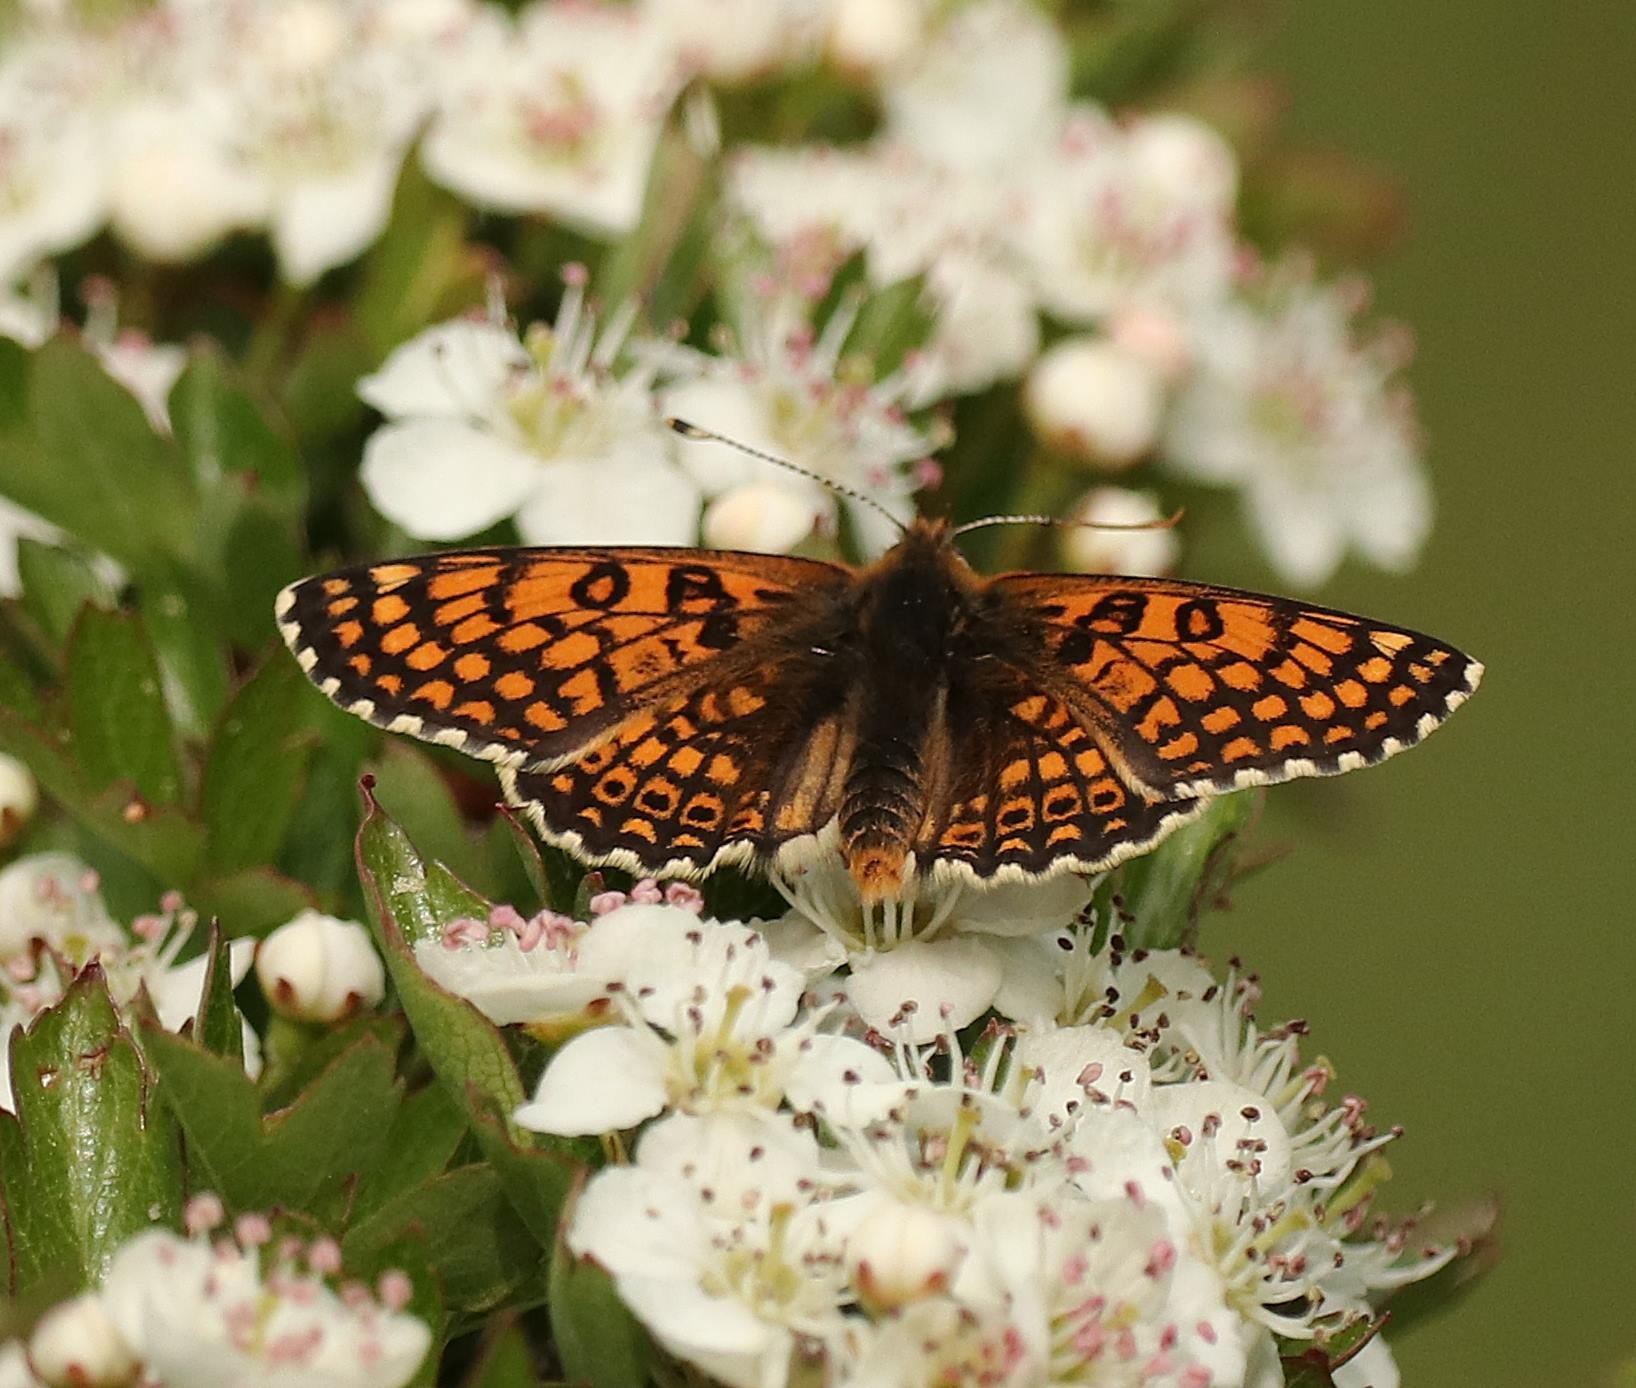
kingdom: Animalia
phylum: Arthropoda
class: Insecta
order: Lepidoptera
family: Nymphalidae
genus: Melitaea
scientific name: Melitaea cinxia
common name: Okkergul pletvinge
